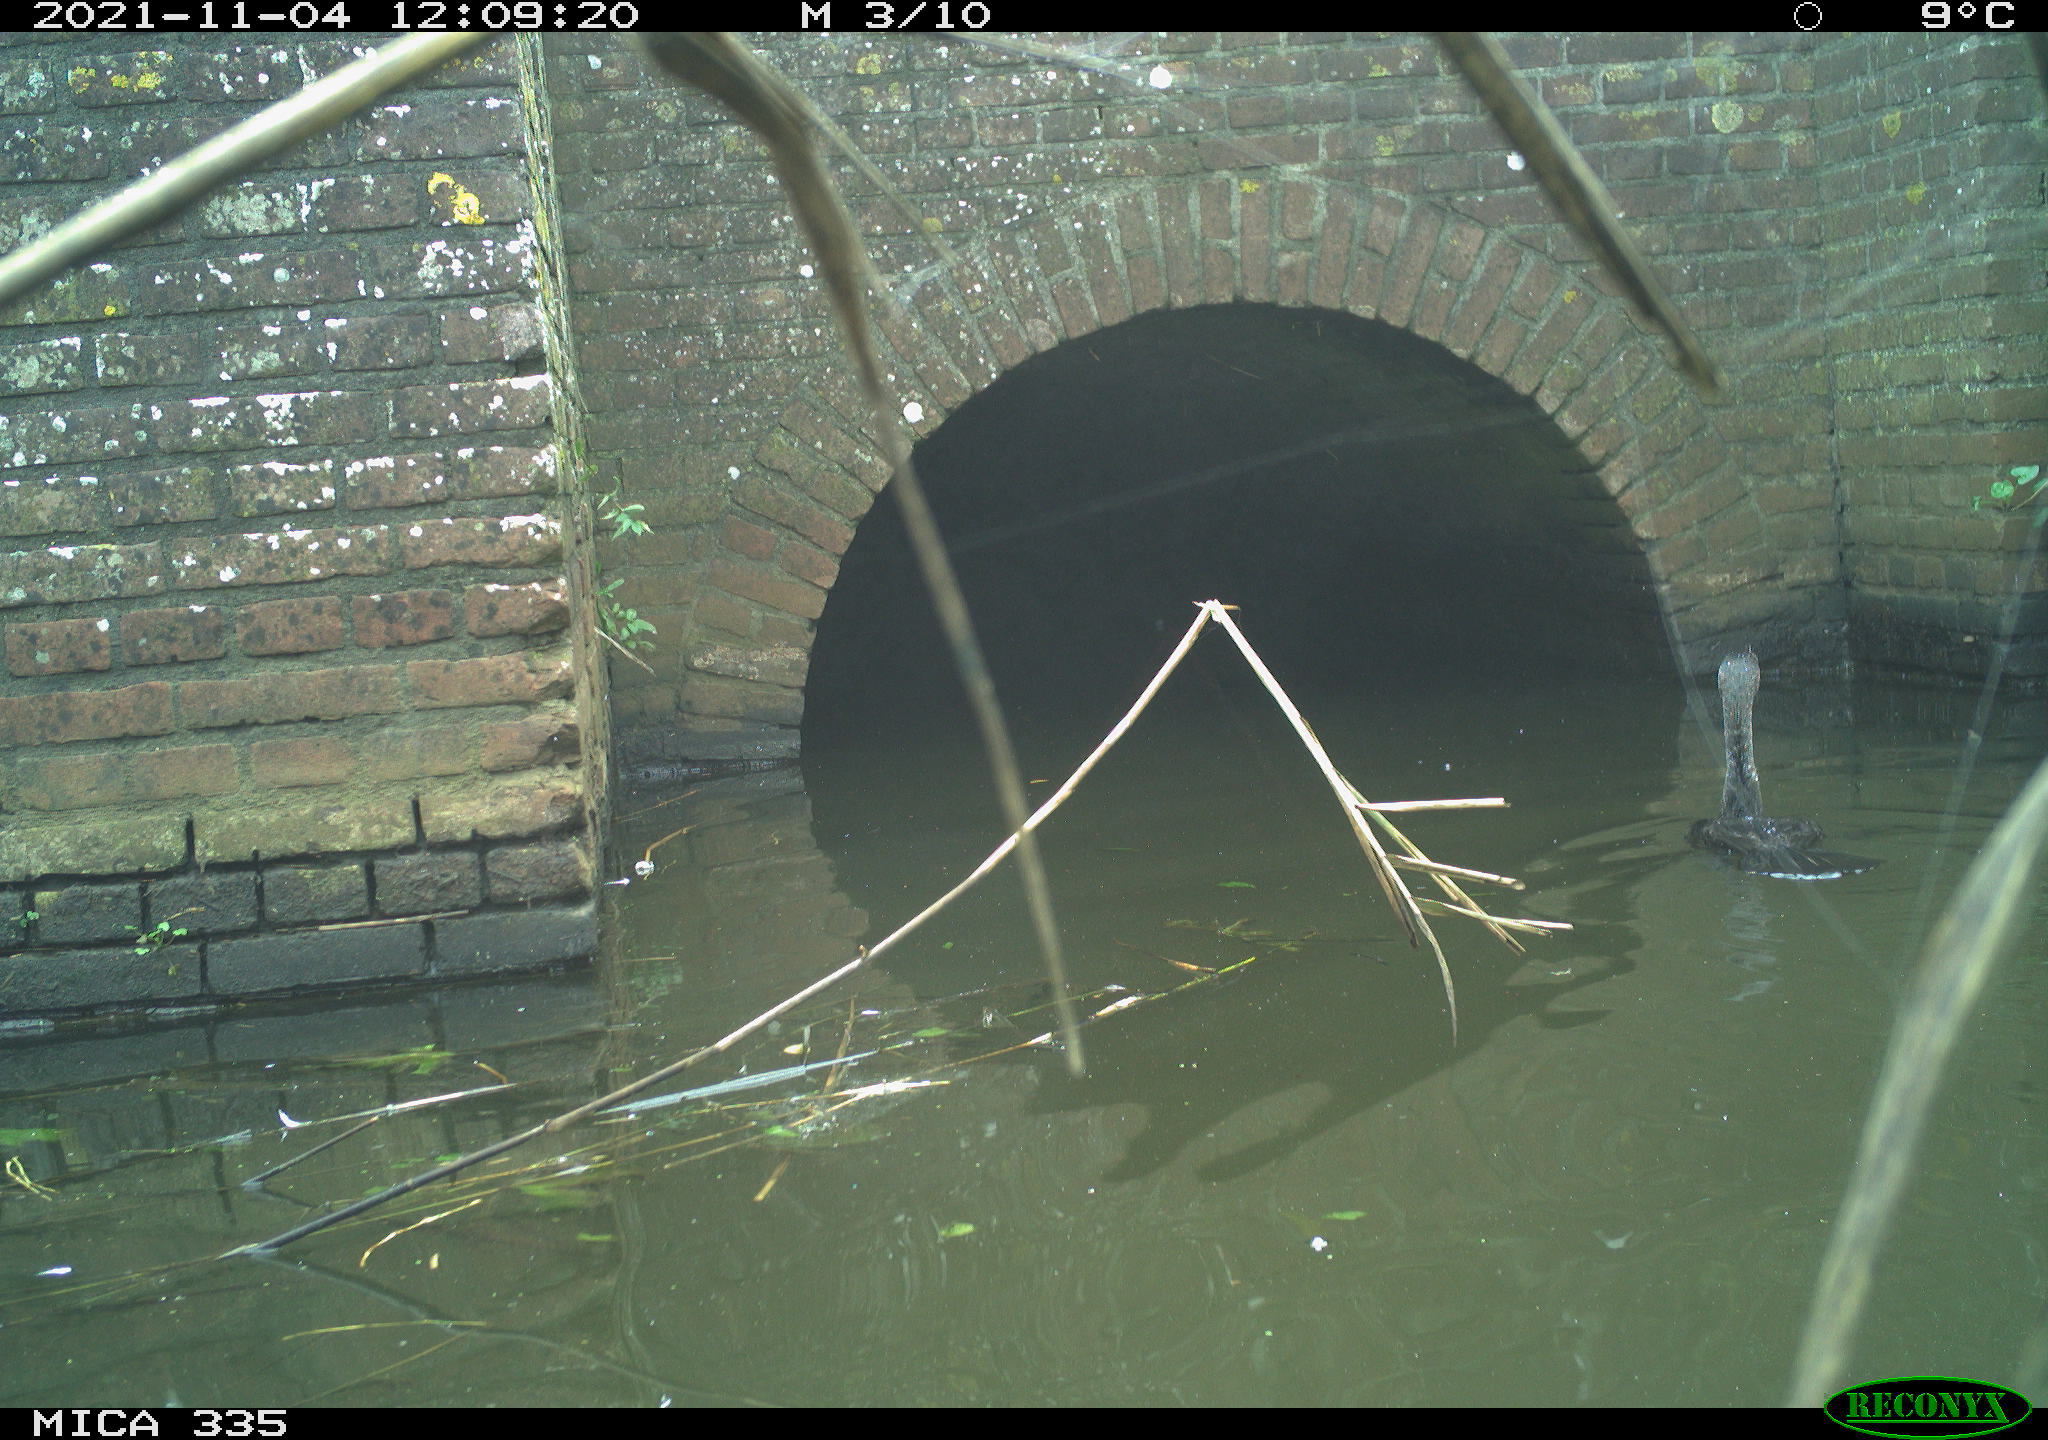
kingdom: Animalia
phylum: Chordata
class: Aves
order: Suliformes
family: Phalacrocoracidae
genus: Phalacrocorax
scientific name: Phalacrocorax carbo
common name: Great cormorant
